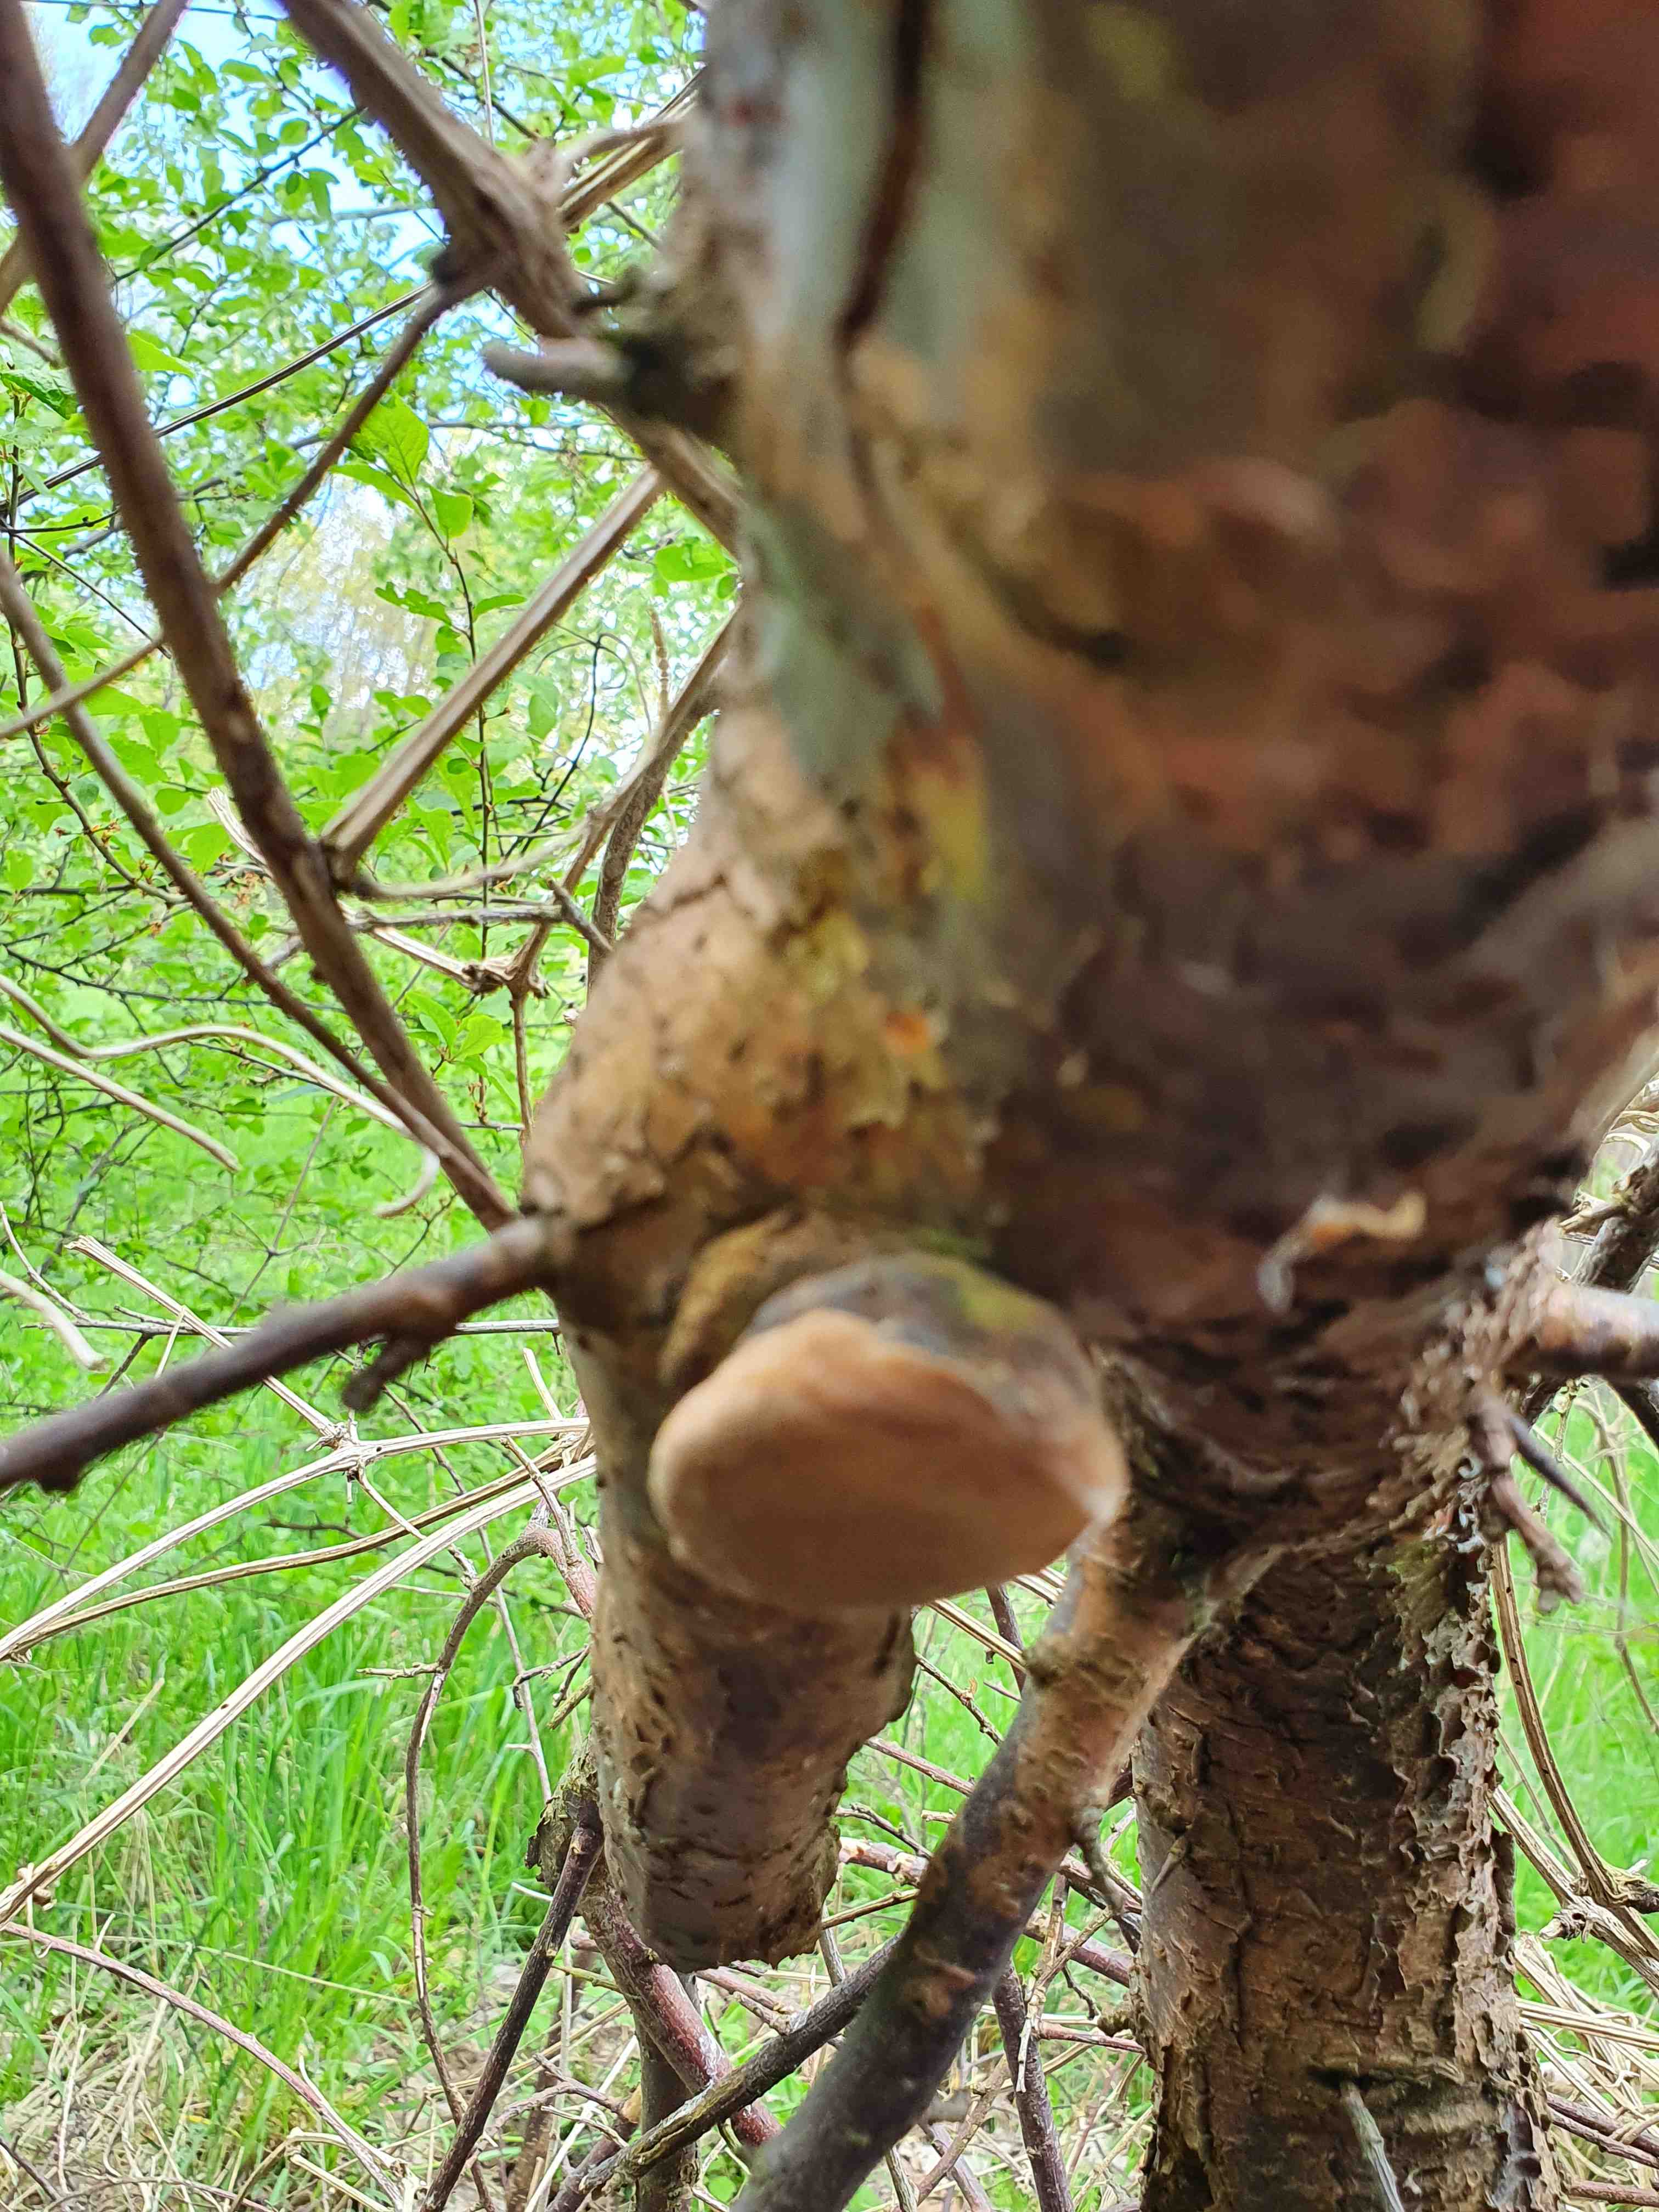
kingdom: Fungi
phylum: Basidiomycota
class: Agaricomycetes
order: Hymenochaetales
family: Hymenochaetaceae
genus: Phellinus
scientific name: Phellinus pomaceus
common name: blomme-ildporesvamp
